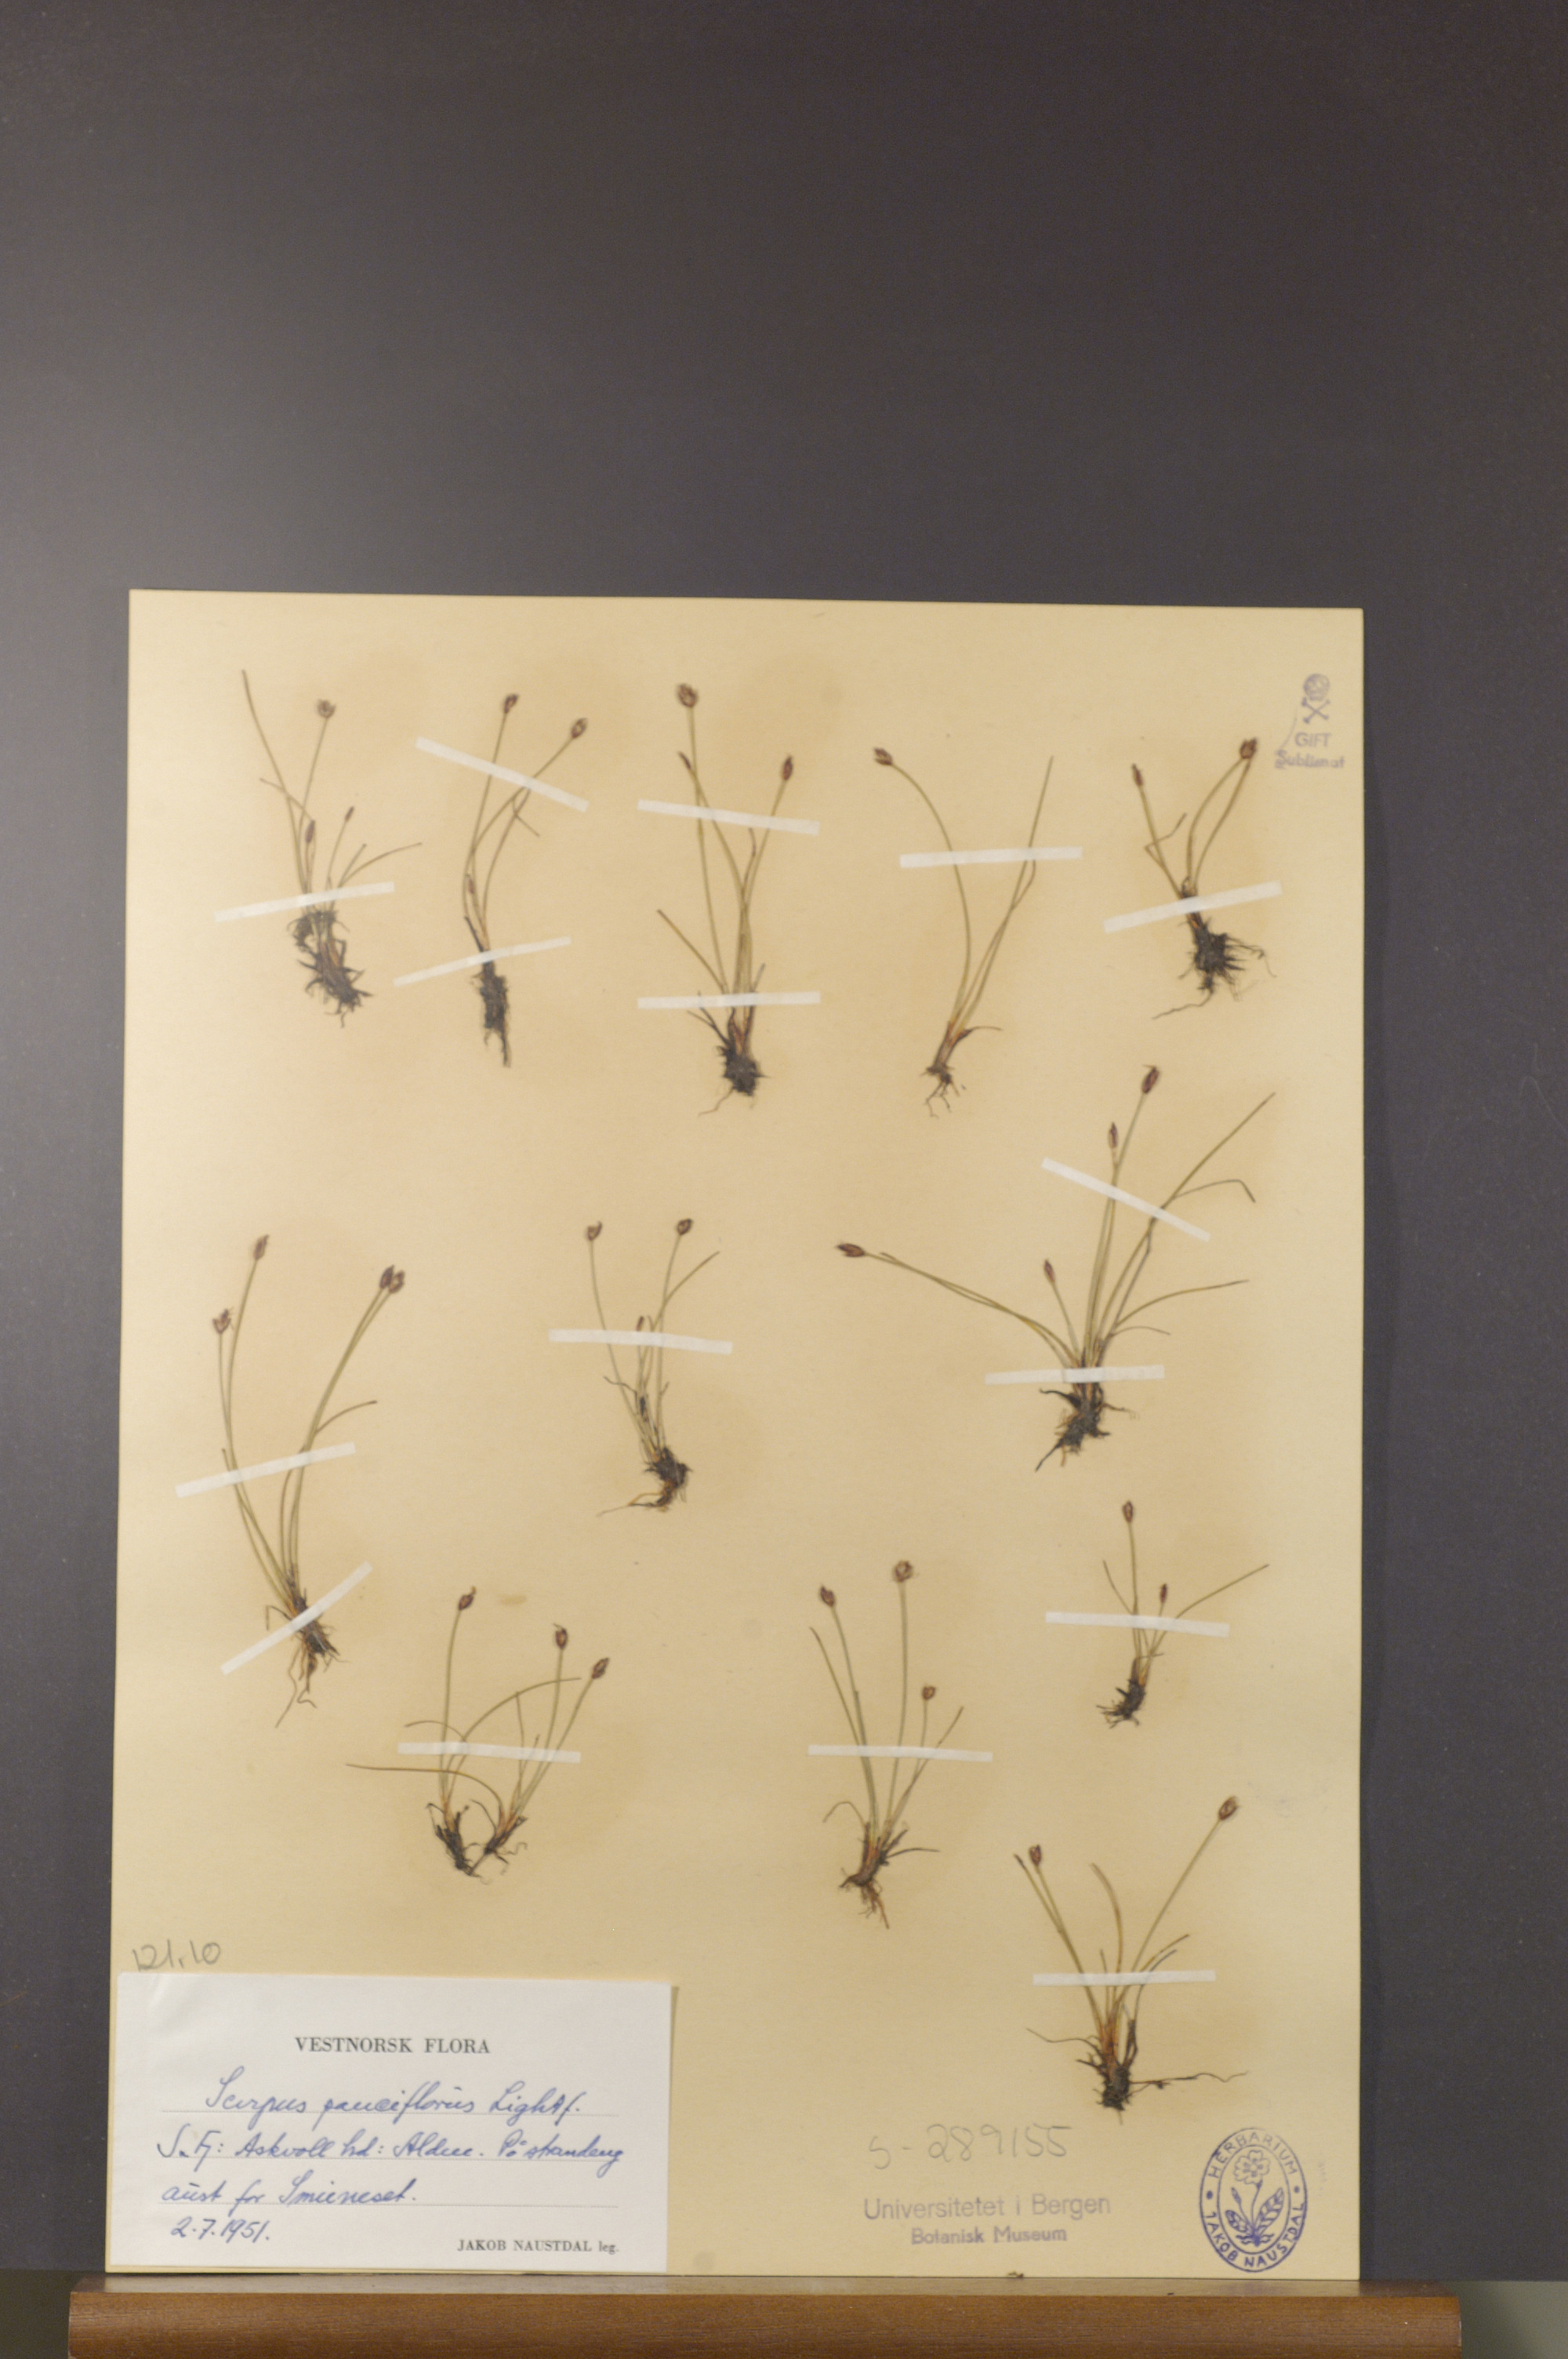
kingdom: Plantae
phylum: Tracheophyta
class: Liliopsida
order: Poales
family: Cyperaceae
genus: Eleocharis
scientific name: Eleocharis quinqueflora
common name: Few-flowered spike-rush
